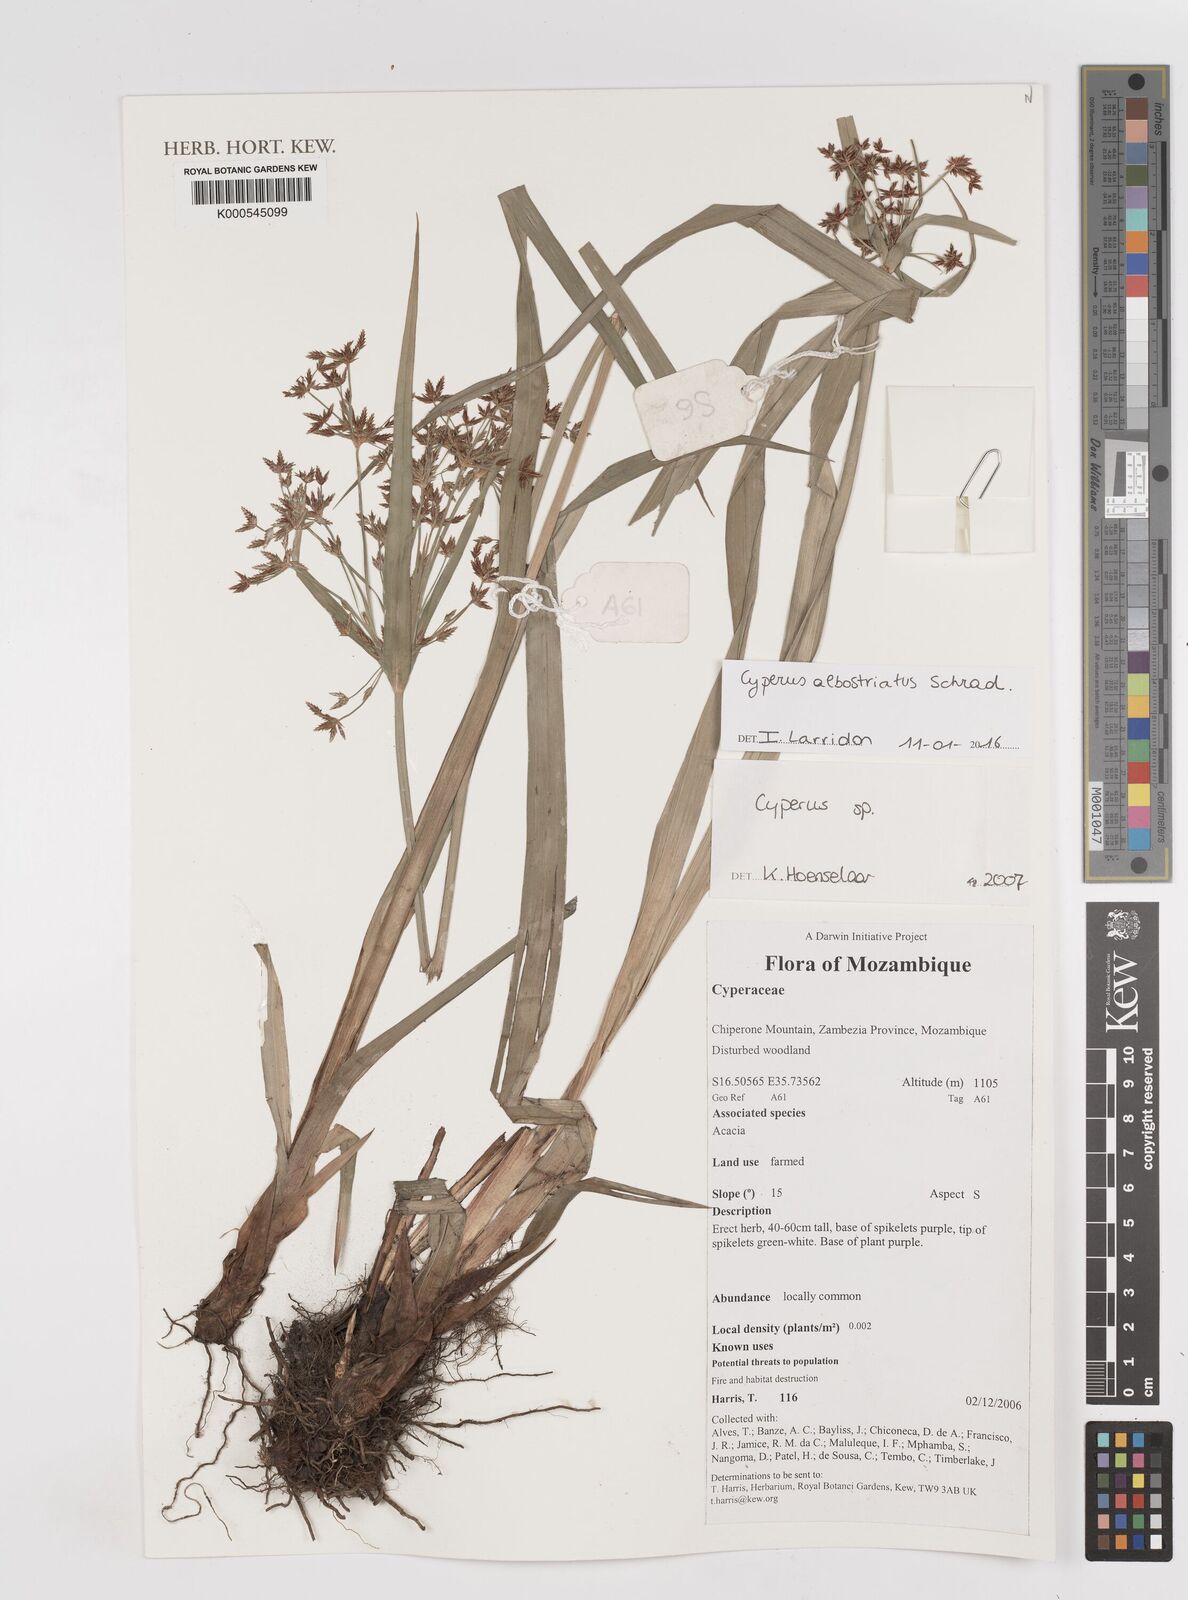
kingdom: Plantae
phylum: Tracheophyta
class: Liliopsida
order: Poales
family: Cyperaceae
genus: Cyperus
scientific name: Cyperus albostriatus
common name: Dwarf umbrella-grass
